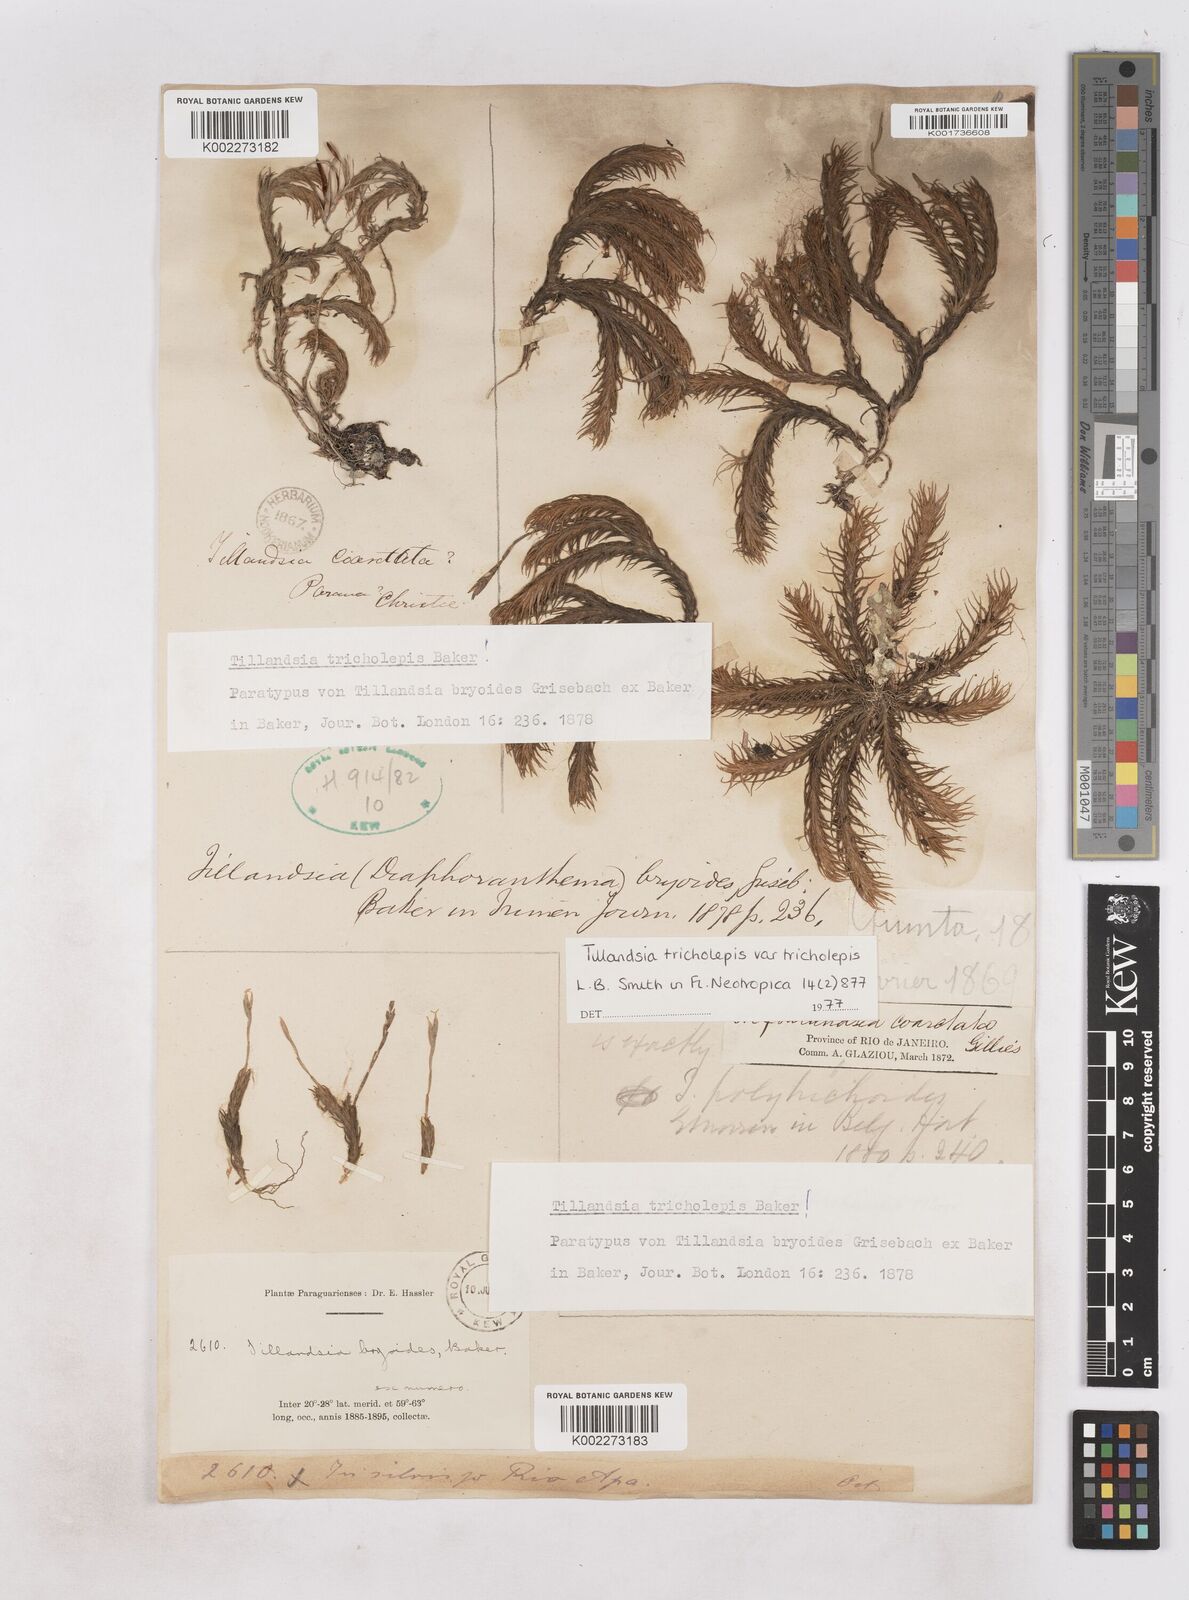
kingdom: Plantae
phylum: Tracheophyta
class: Liliopsida
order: Poales
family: Bromeliaceae
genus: Tillandsia
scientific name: Tillandsia tricholepis
